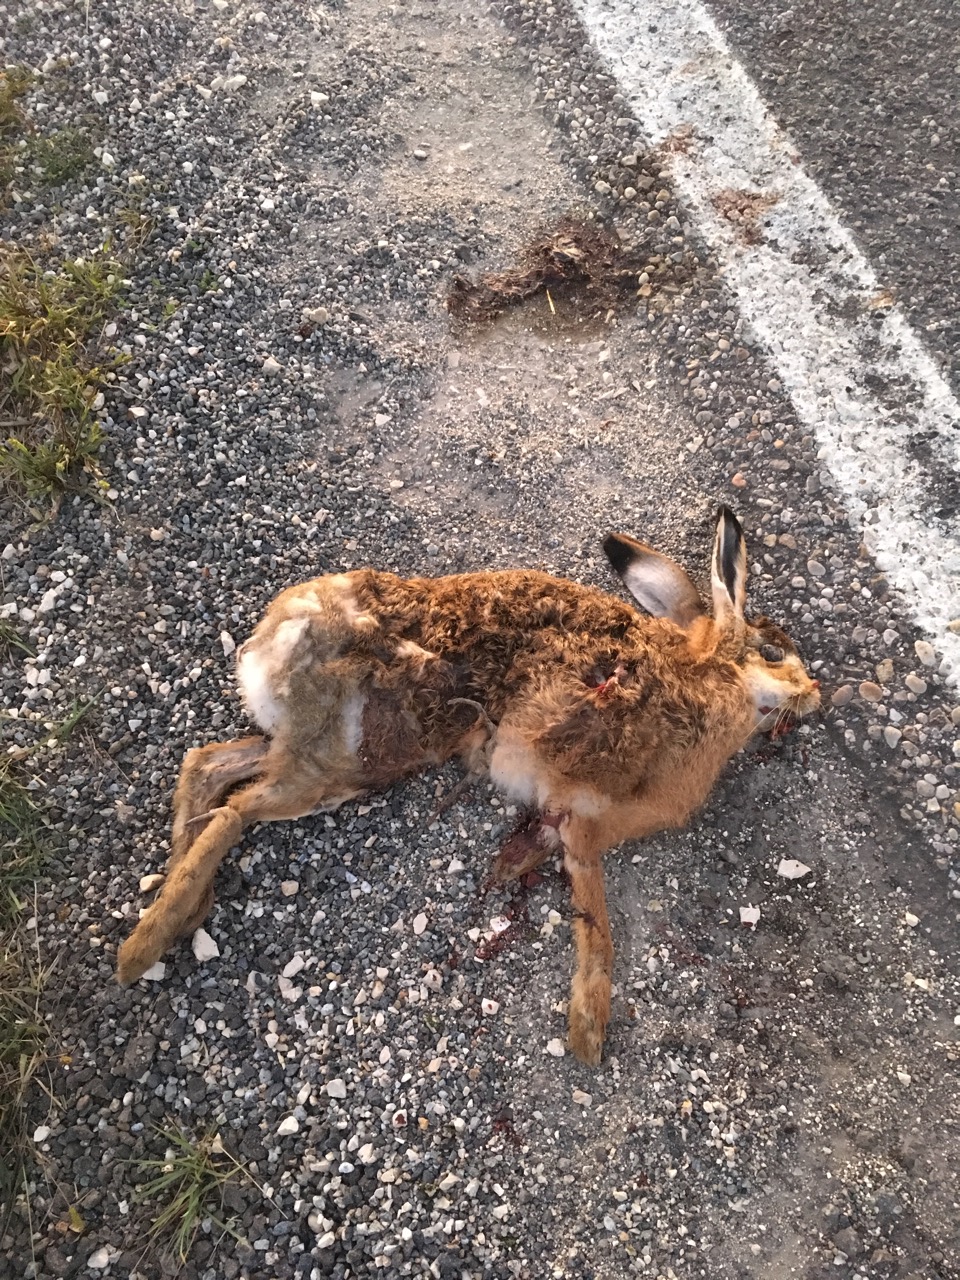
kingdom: Animalia
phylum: Chordata
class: Mammalia
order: Lagomorpha
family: Leporidae
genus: Lepus
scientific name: Lepus europaeus
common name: European hare
